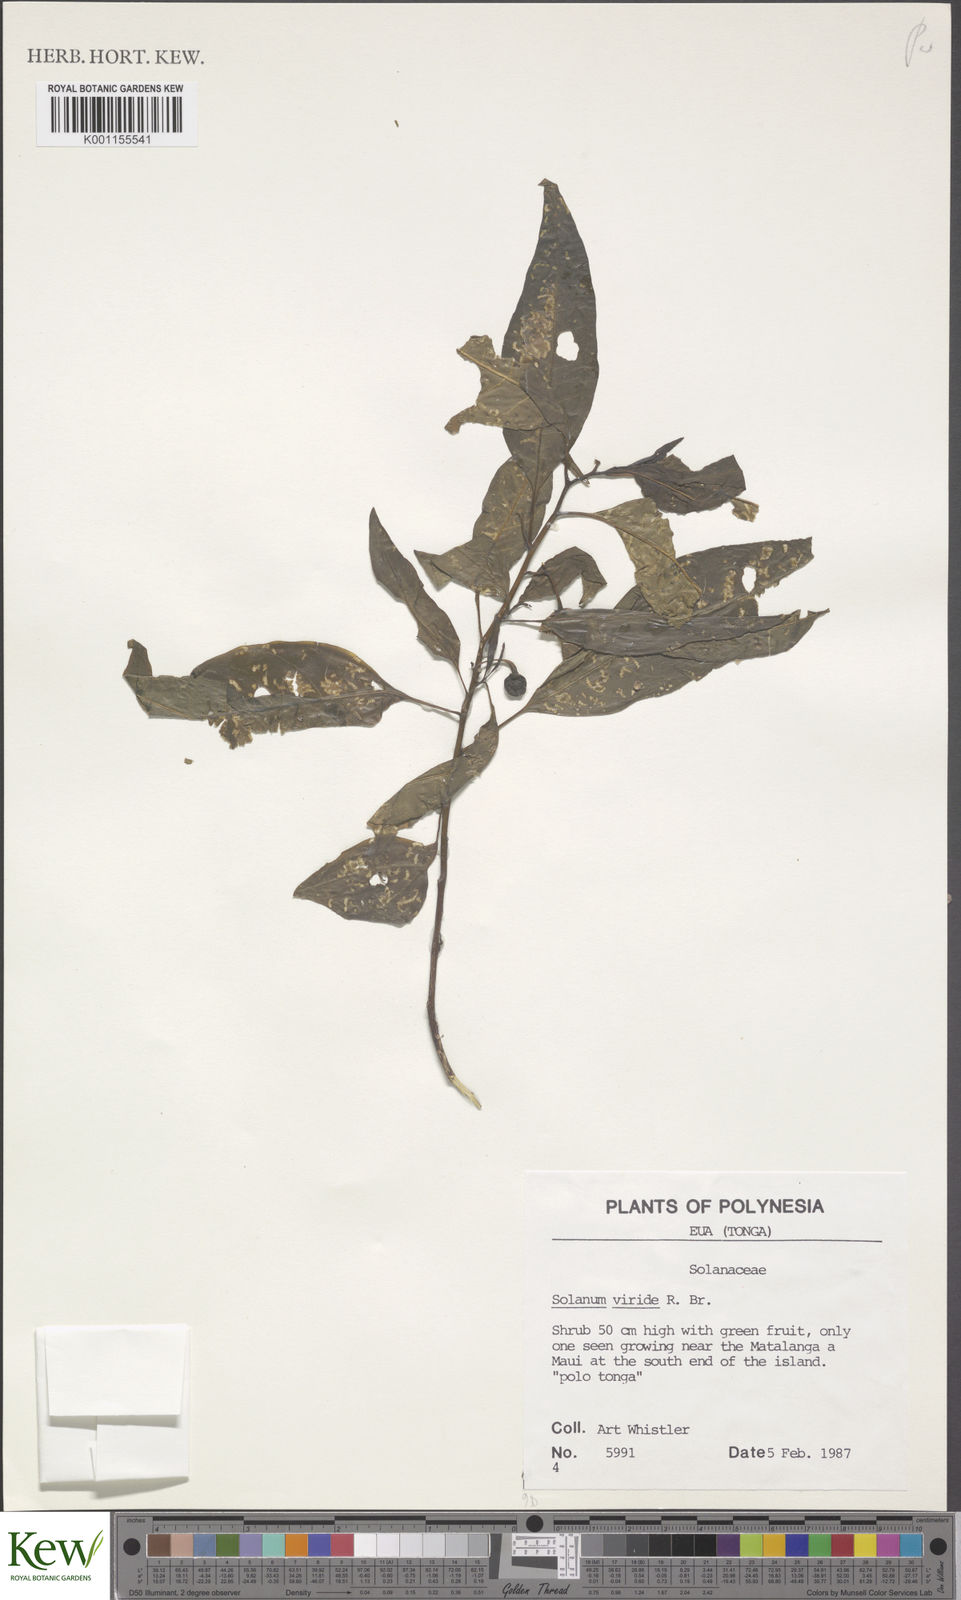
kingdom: Plantae
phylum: Tracheophyta
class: Magnoliopsida
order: Solanales
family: Solanaceae
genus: Solanum
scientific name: Solanum
